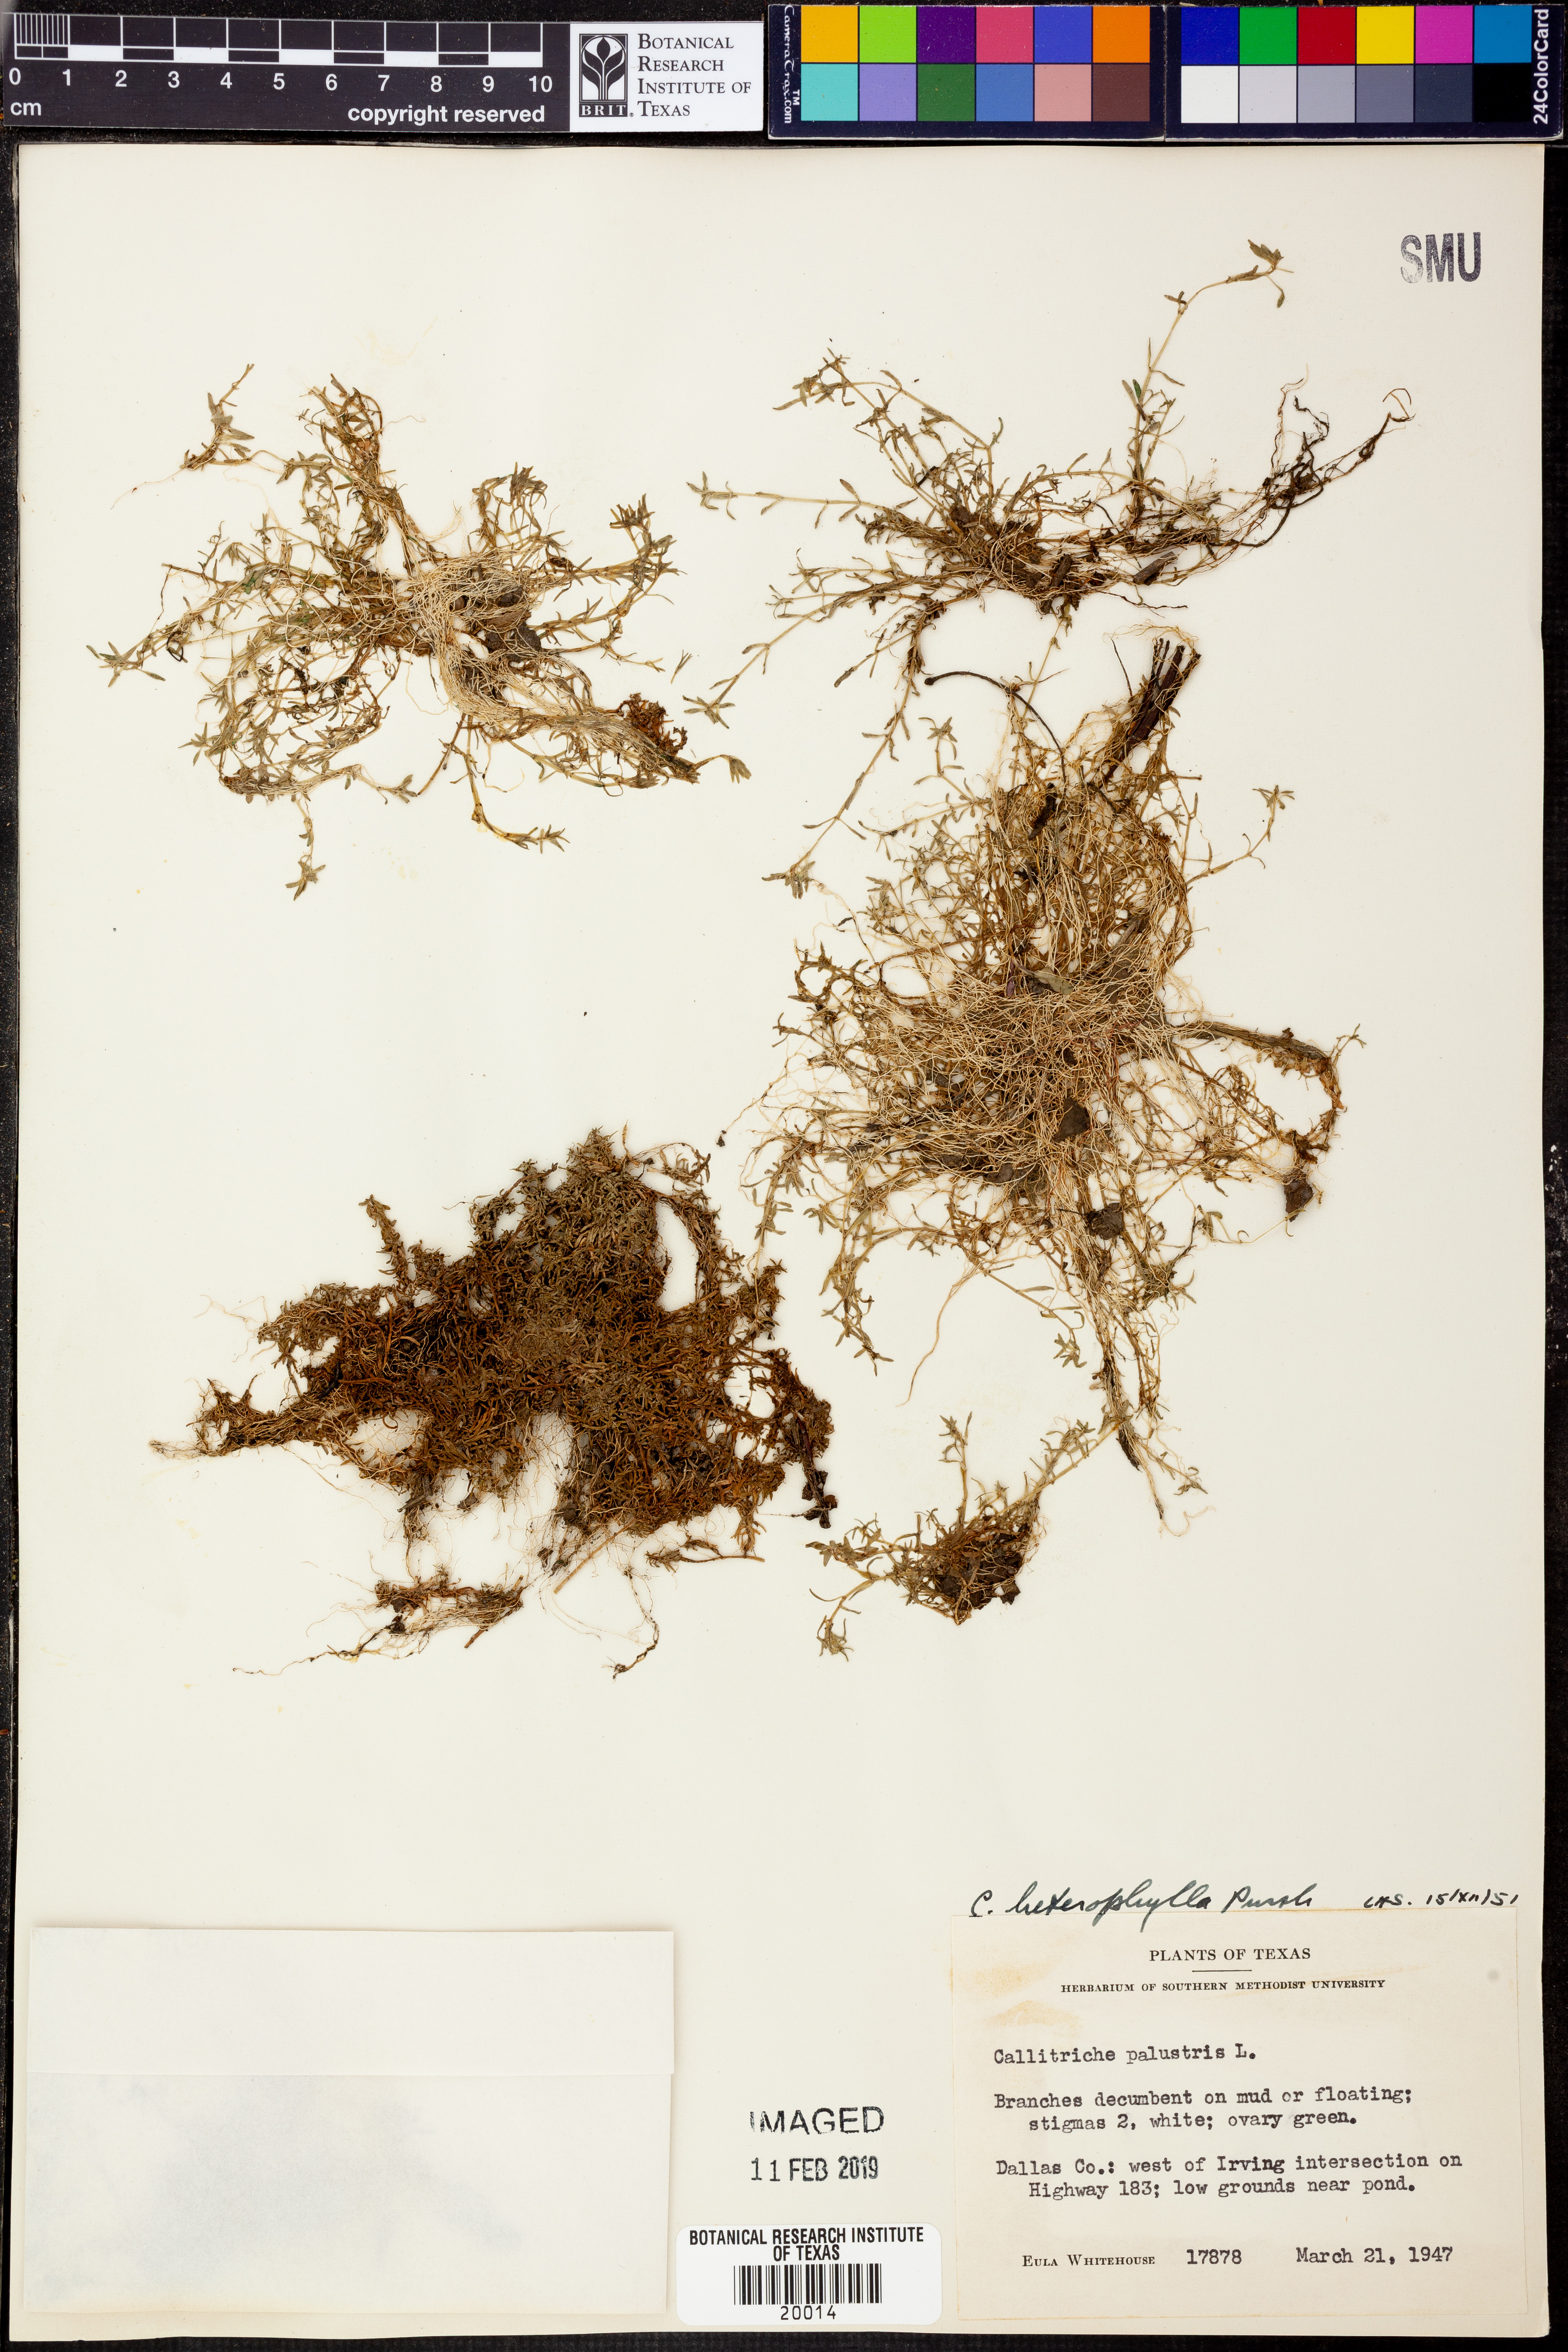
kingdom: Plantae
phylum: Tracheophyta
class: Magnoliopsida
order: Lamiales
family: Plantaginaceae
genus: Callitriche
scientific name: Callitriche heterophylla
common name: Two-headed water-starwort
